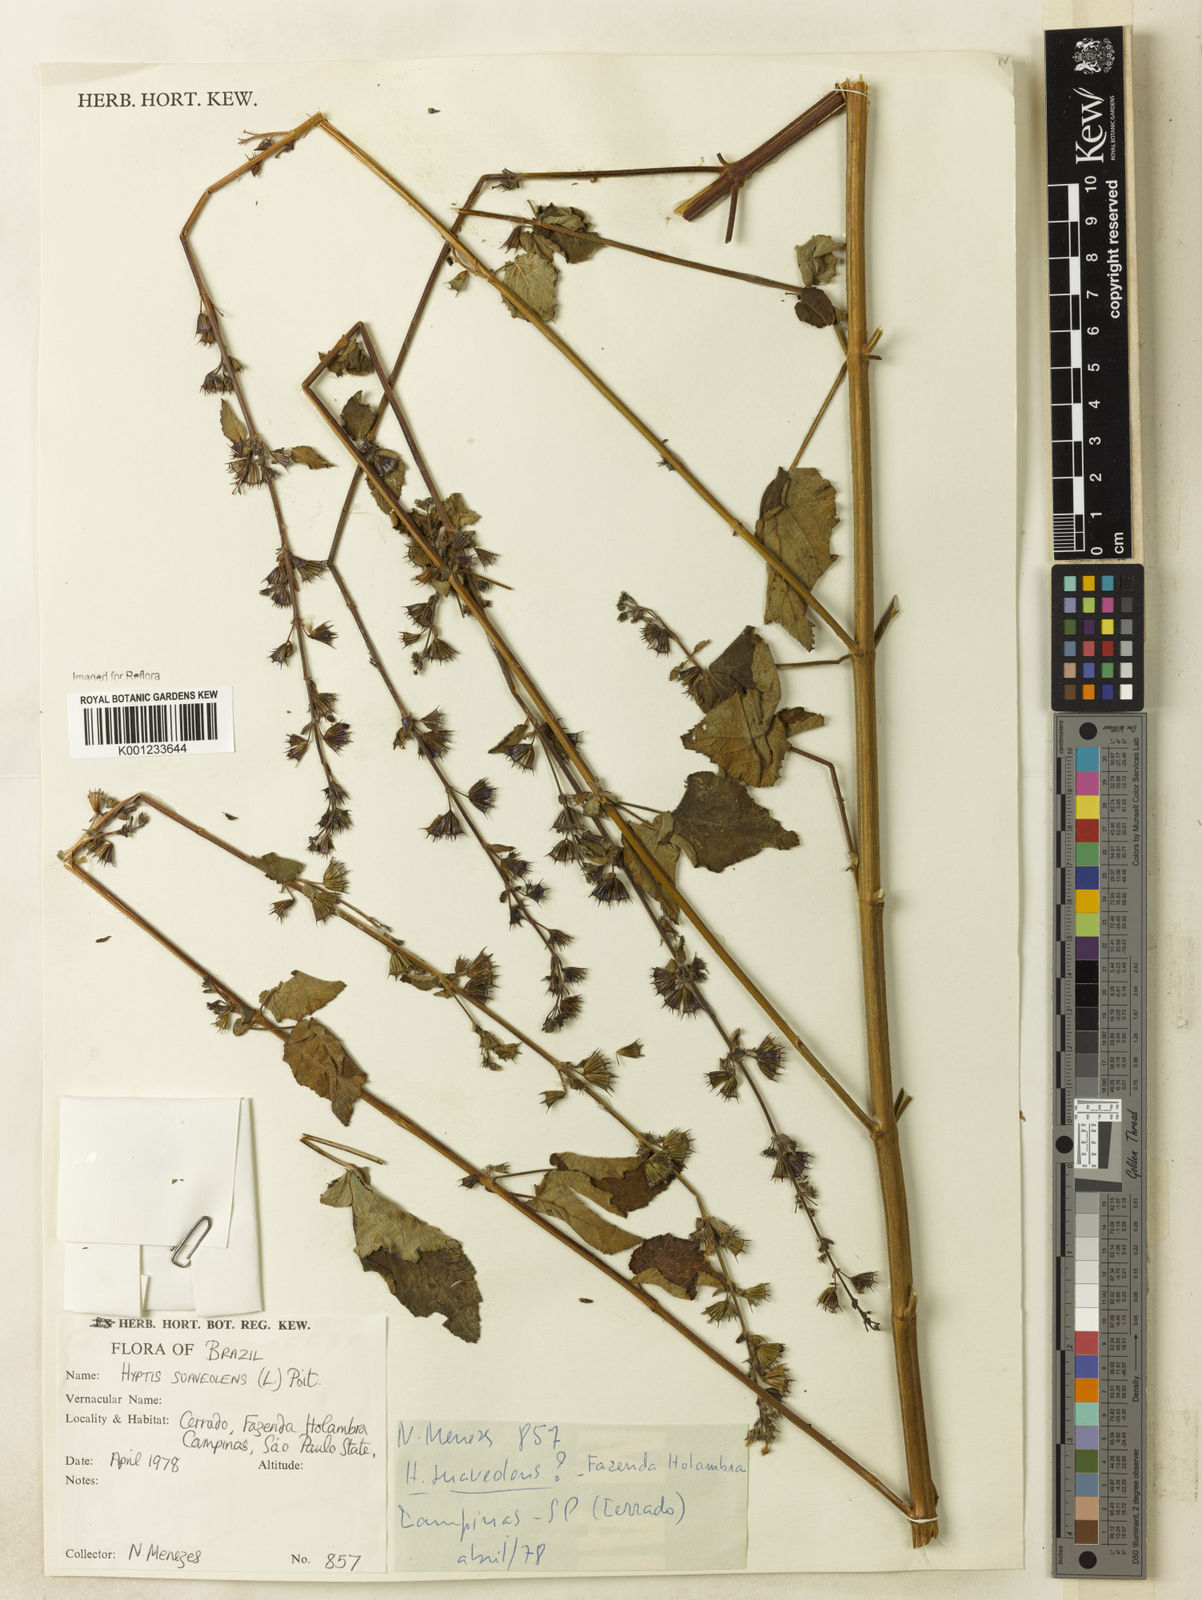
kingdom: Plantae
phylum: Tracheophyta
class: Magnoliopsida
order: Lamiales
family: Lamiaceae
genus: Mesosphaerum
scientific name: Mesosphaerum suaveolens
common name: Pignut
